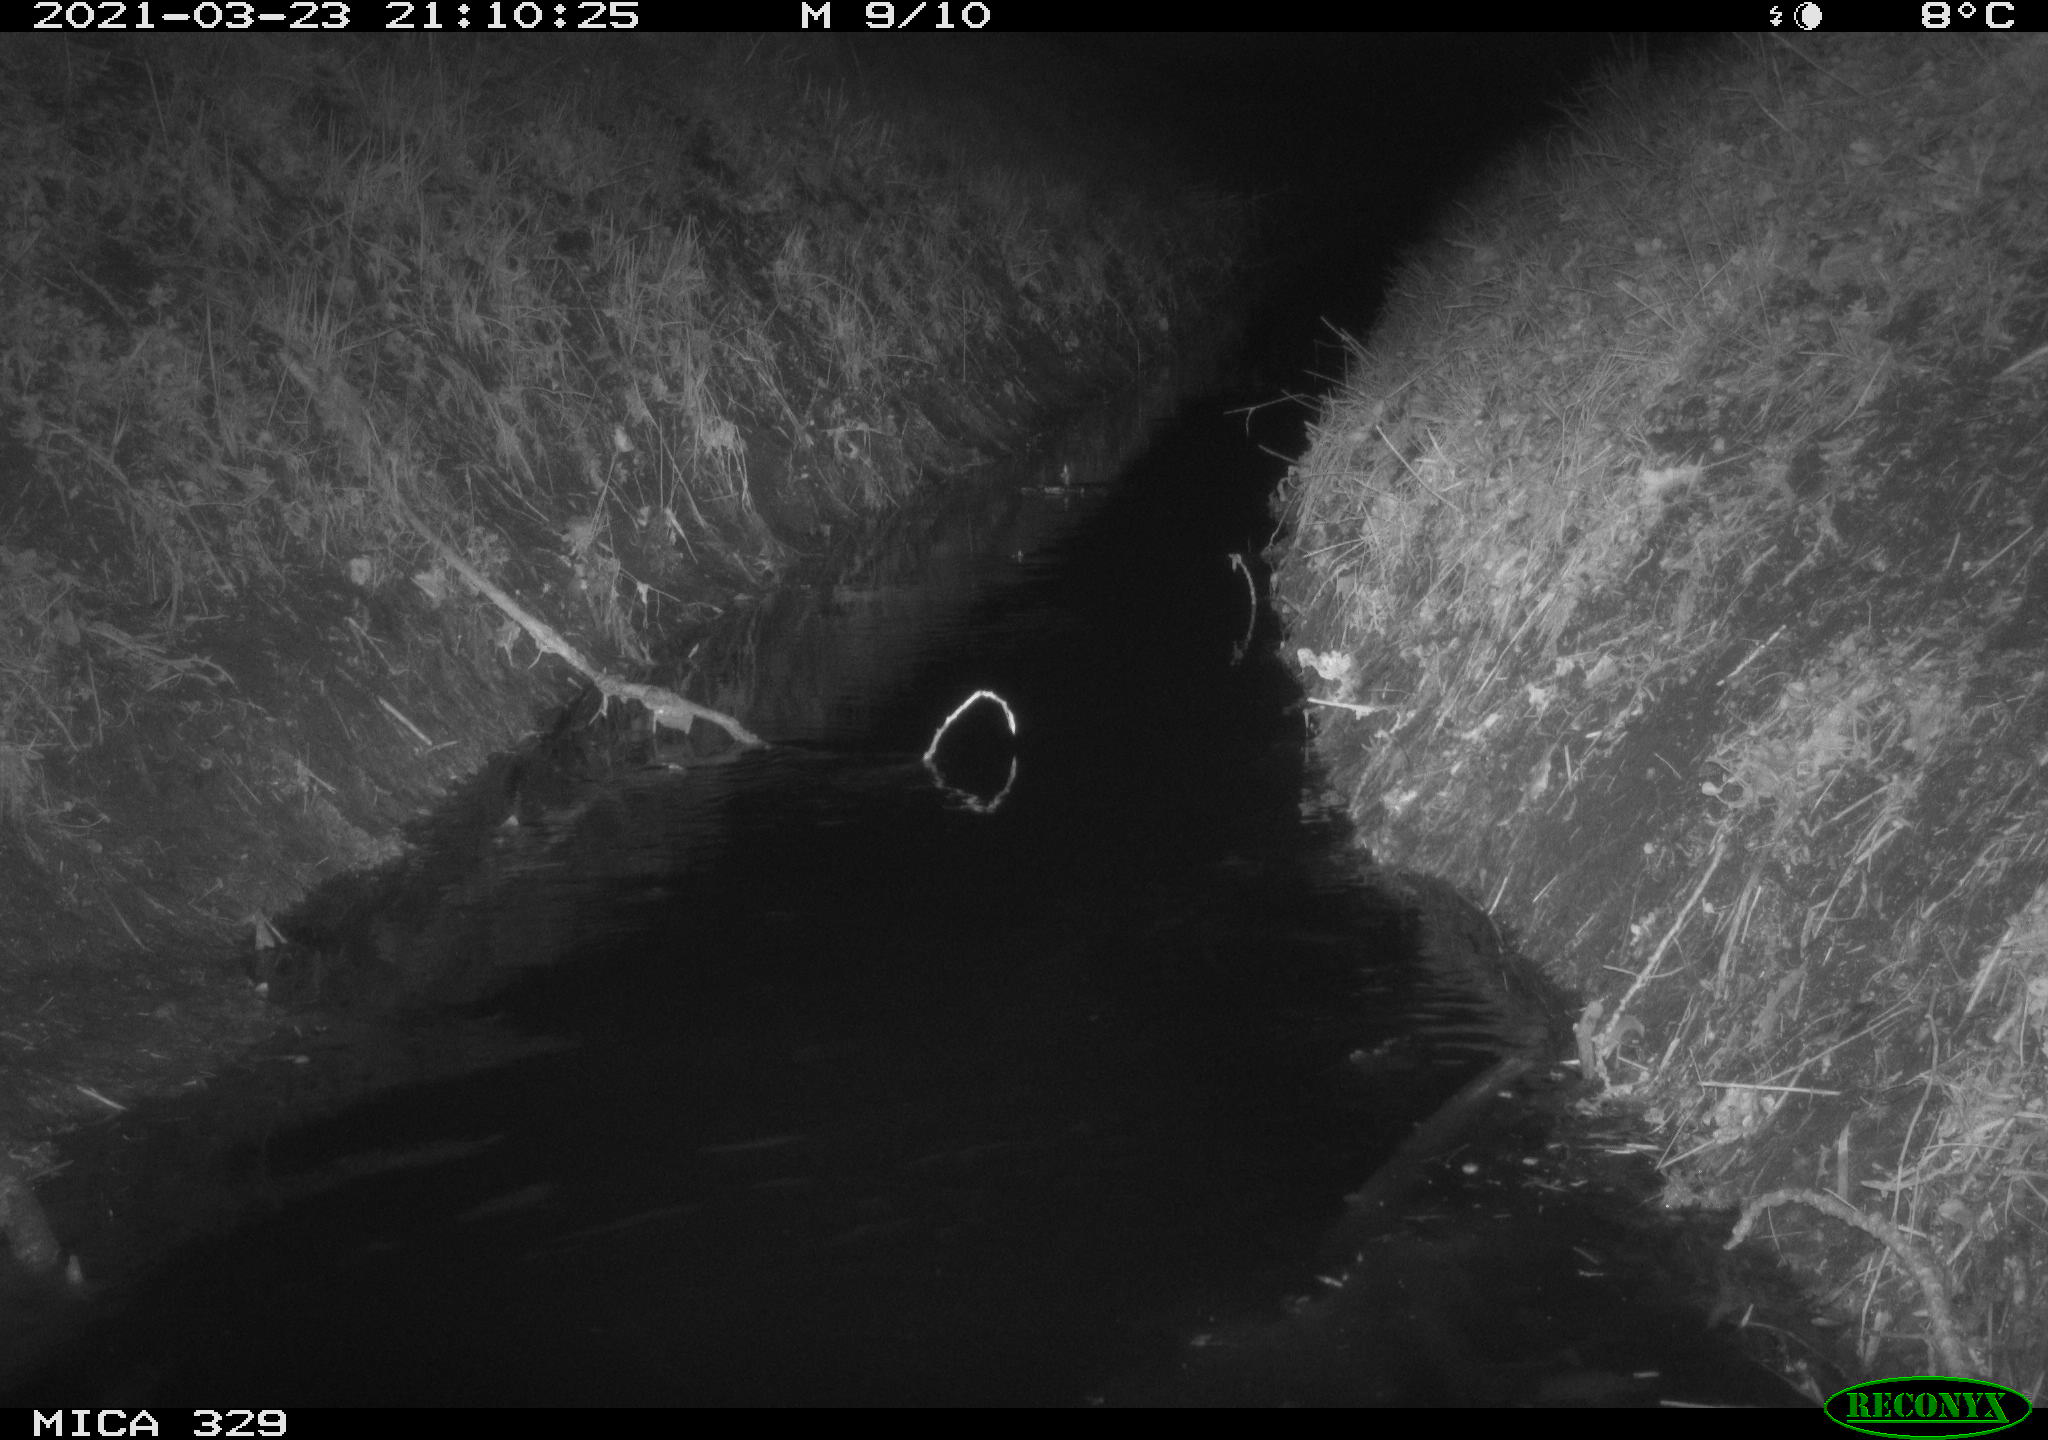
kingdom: Animalia
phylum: Chordata
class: Mammalia
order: Rodentia
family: Cricetidae
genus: Ondatra
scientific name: Ondatra zibethicus
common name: Muskrat
